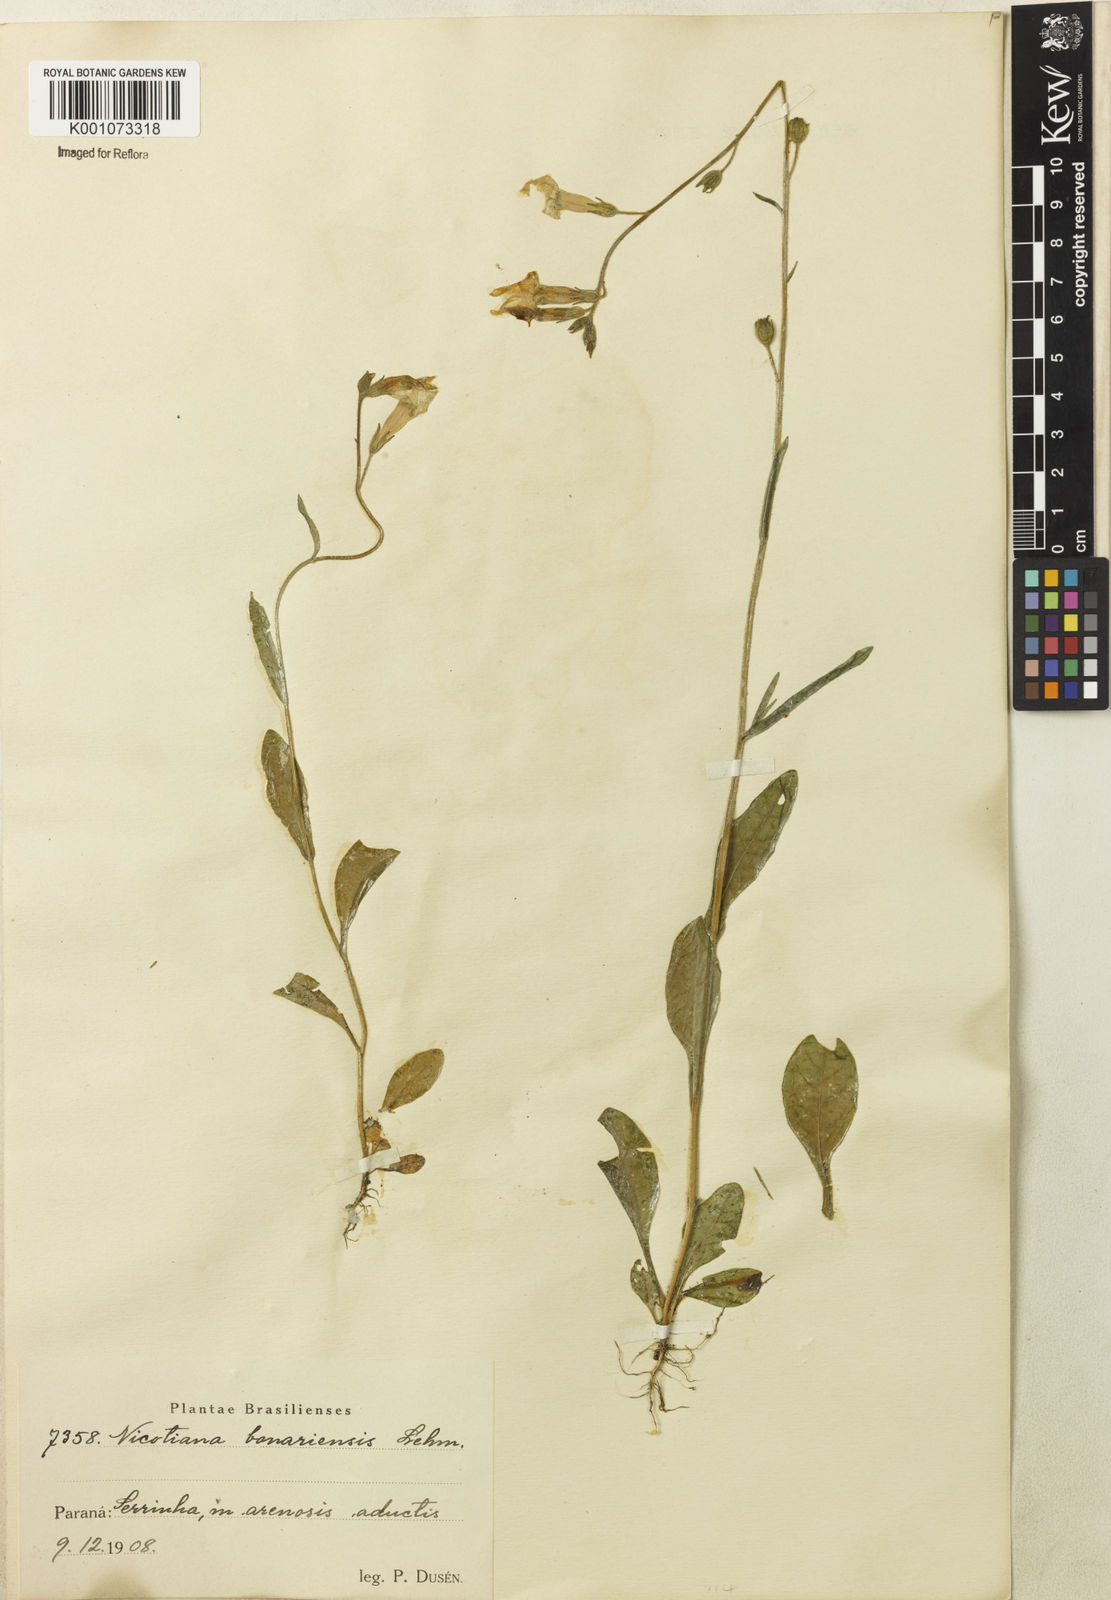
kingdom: Plantae
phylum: Tracheophyta
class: Magnoliopsida
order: Solanales
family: Solanaceae
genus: Nicotiana
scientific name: Nicotiana bonariensis
